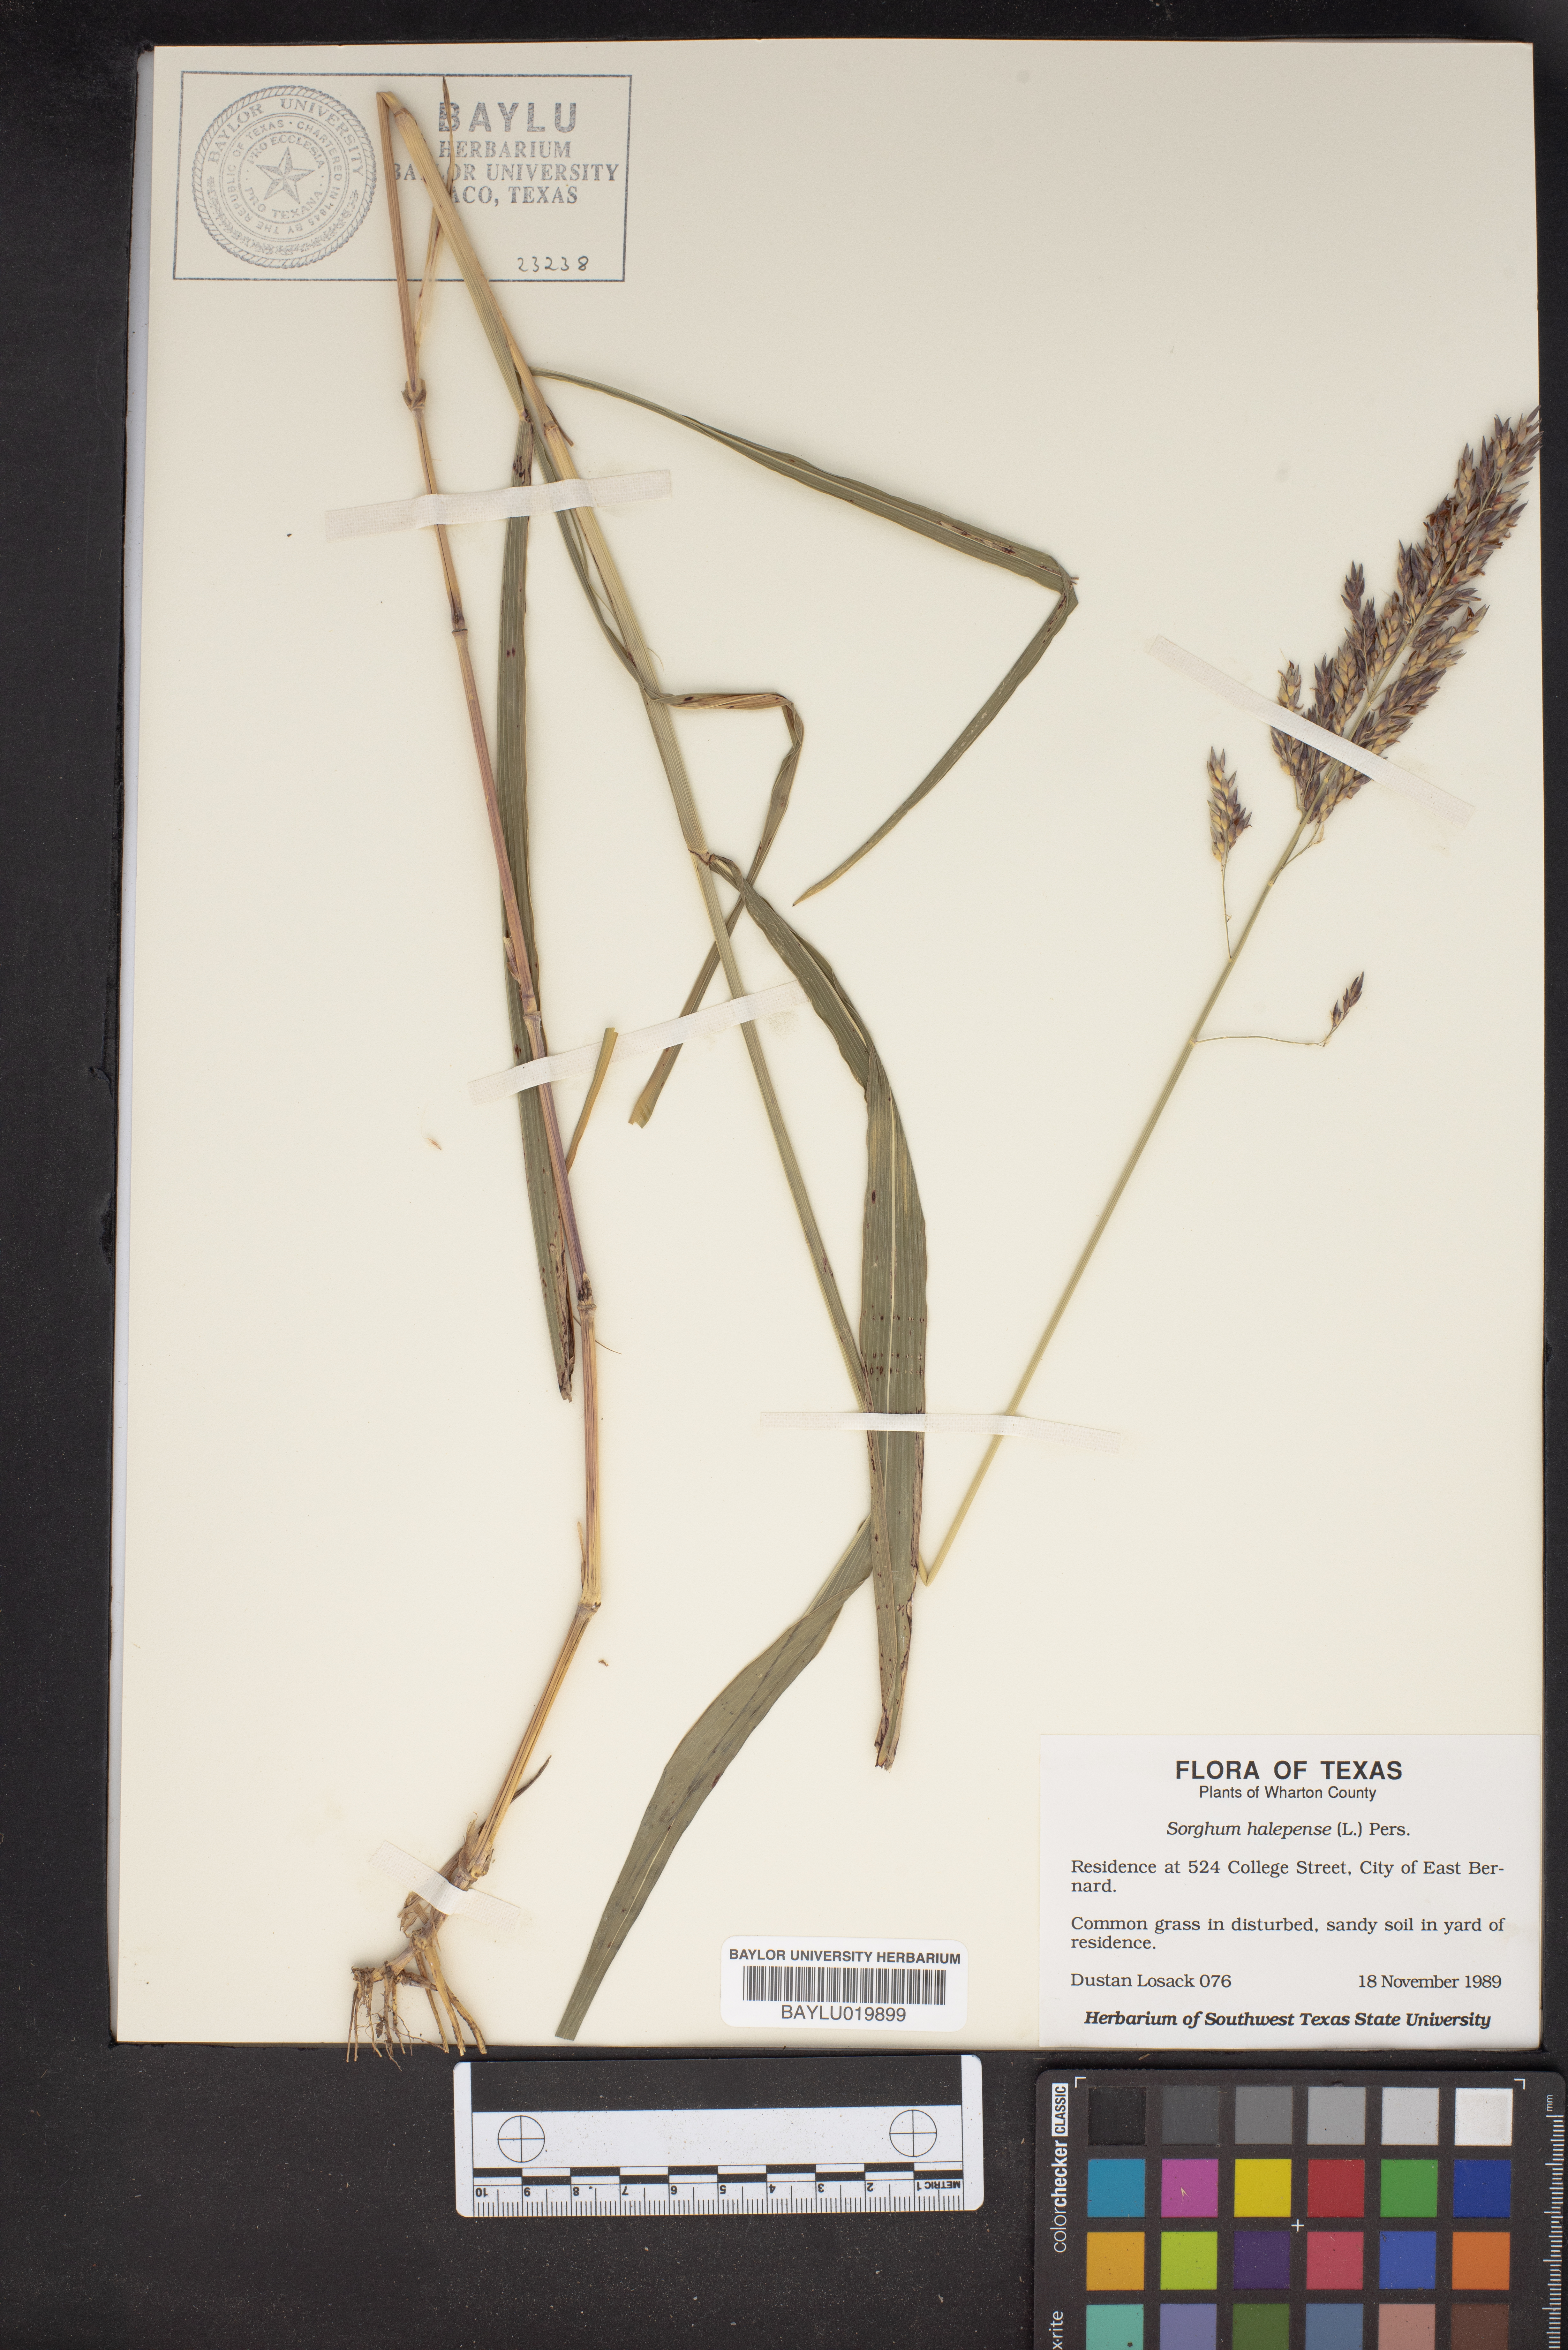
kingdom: Plantae
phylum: Tracheophyta
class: Liliopsida
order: Poales
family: Poaceae
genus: Sorghum
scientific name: Sorghum halepense
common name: Johnson-grass
